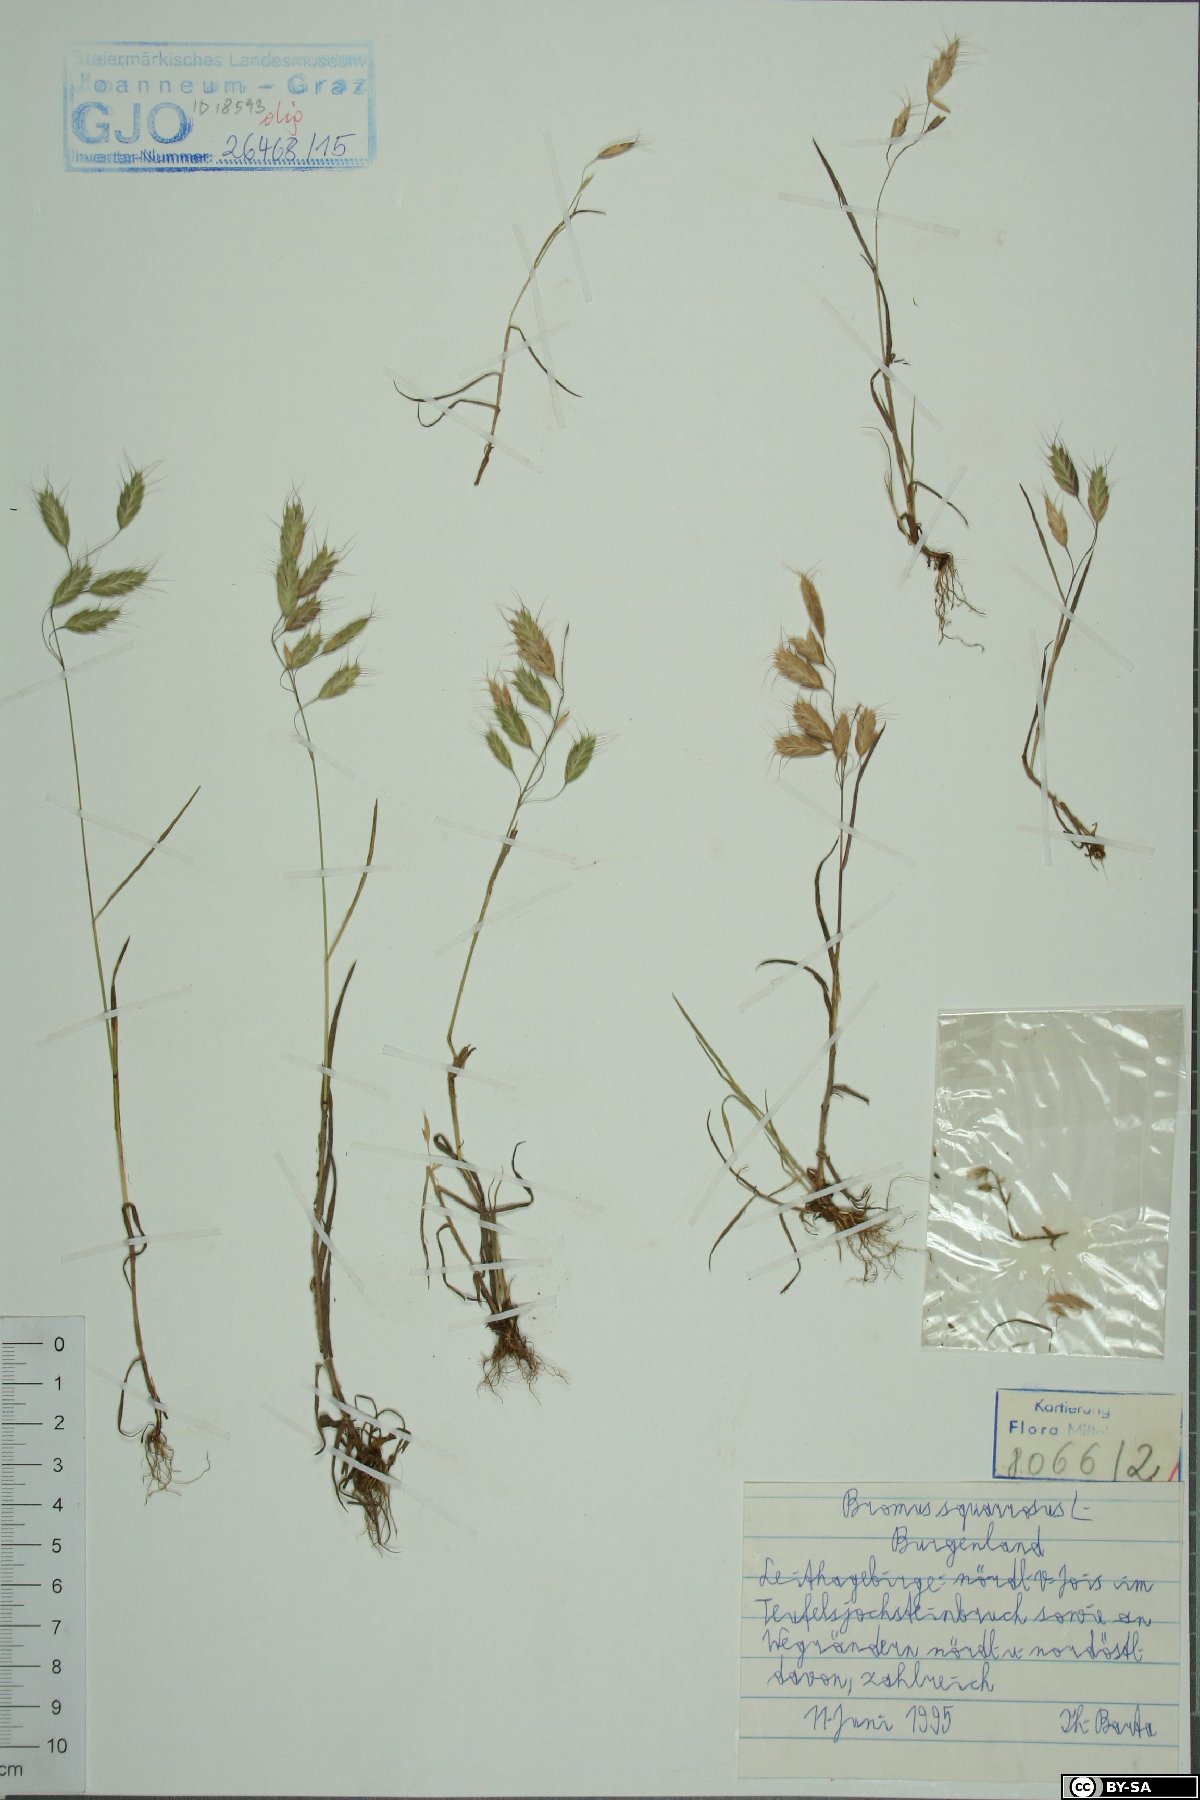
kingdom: Plantae
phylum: Tracheophyta
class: Liliopsida
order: Poales
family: Poaceae
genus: Bromus
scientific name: Bromus squarrosus
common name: Corn brome
